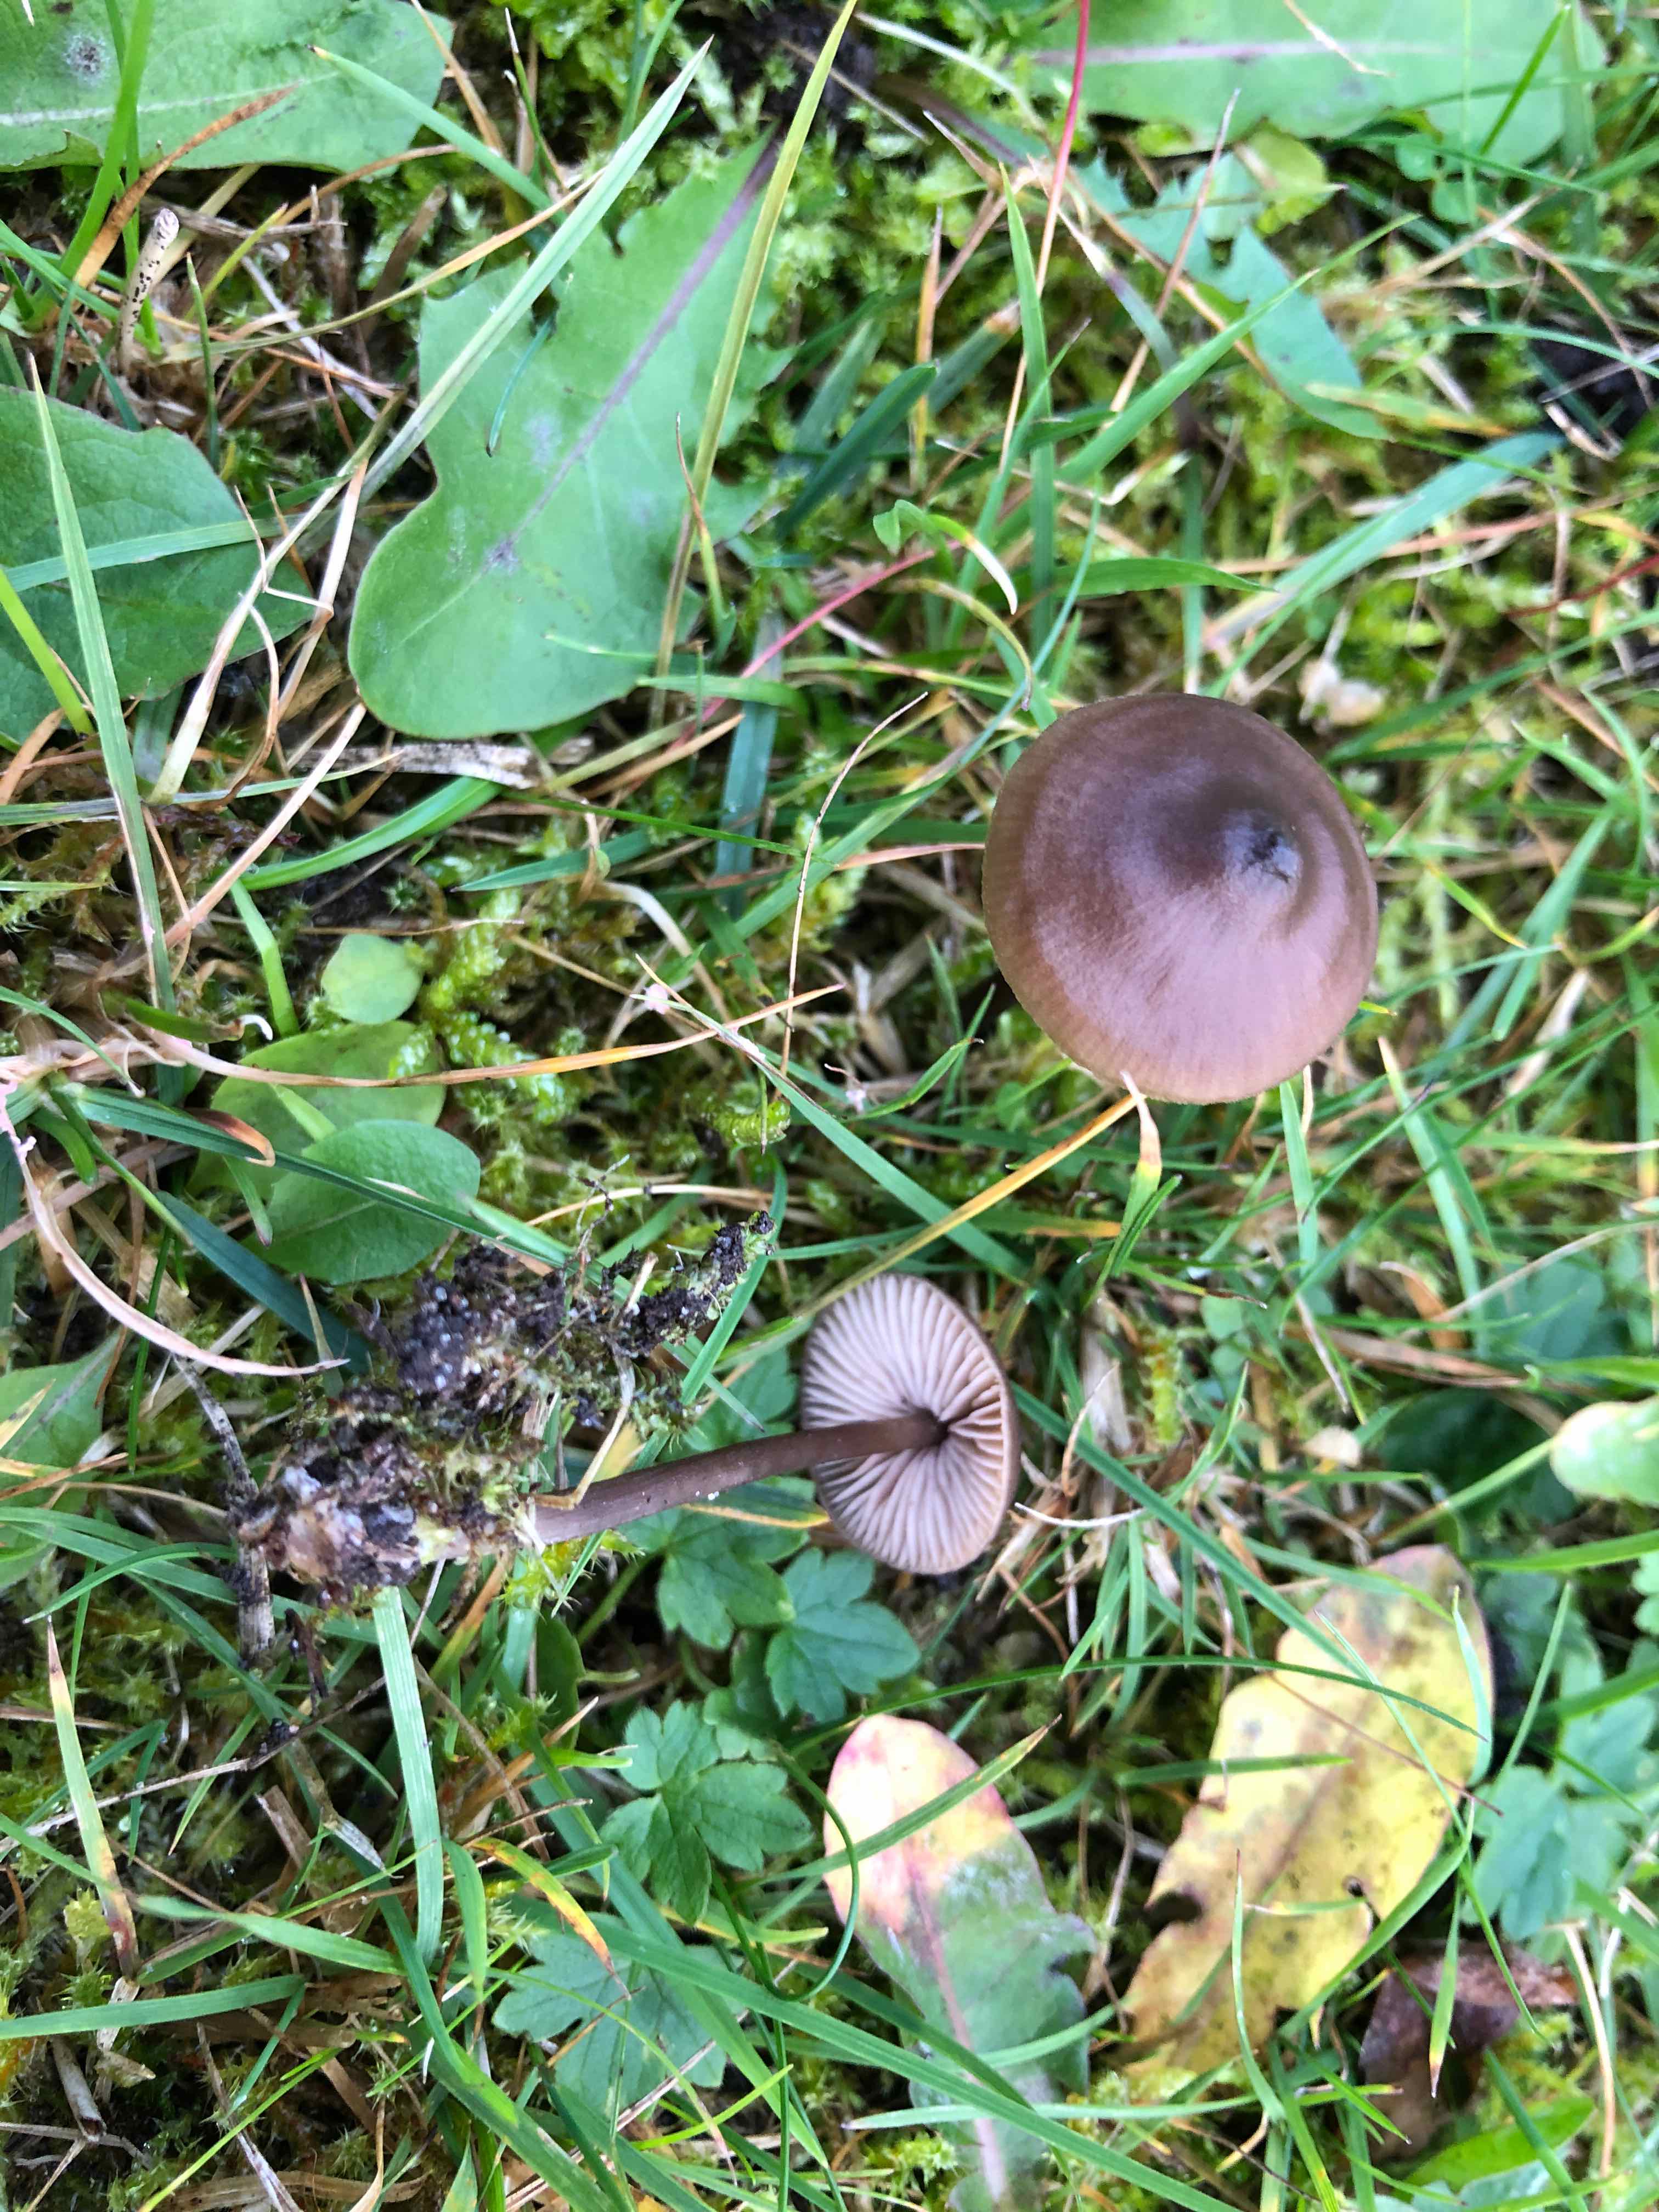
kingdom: Fungi
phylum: Basidiomycota
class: Agaricomycetes
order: Agaricales
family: Entolomataceae
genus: Entoloma
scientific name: Entoloma
